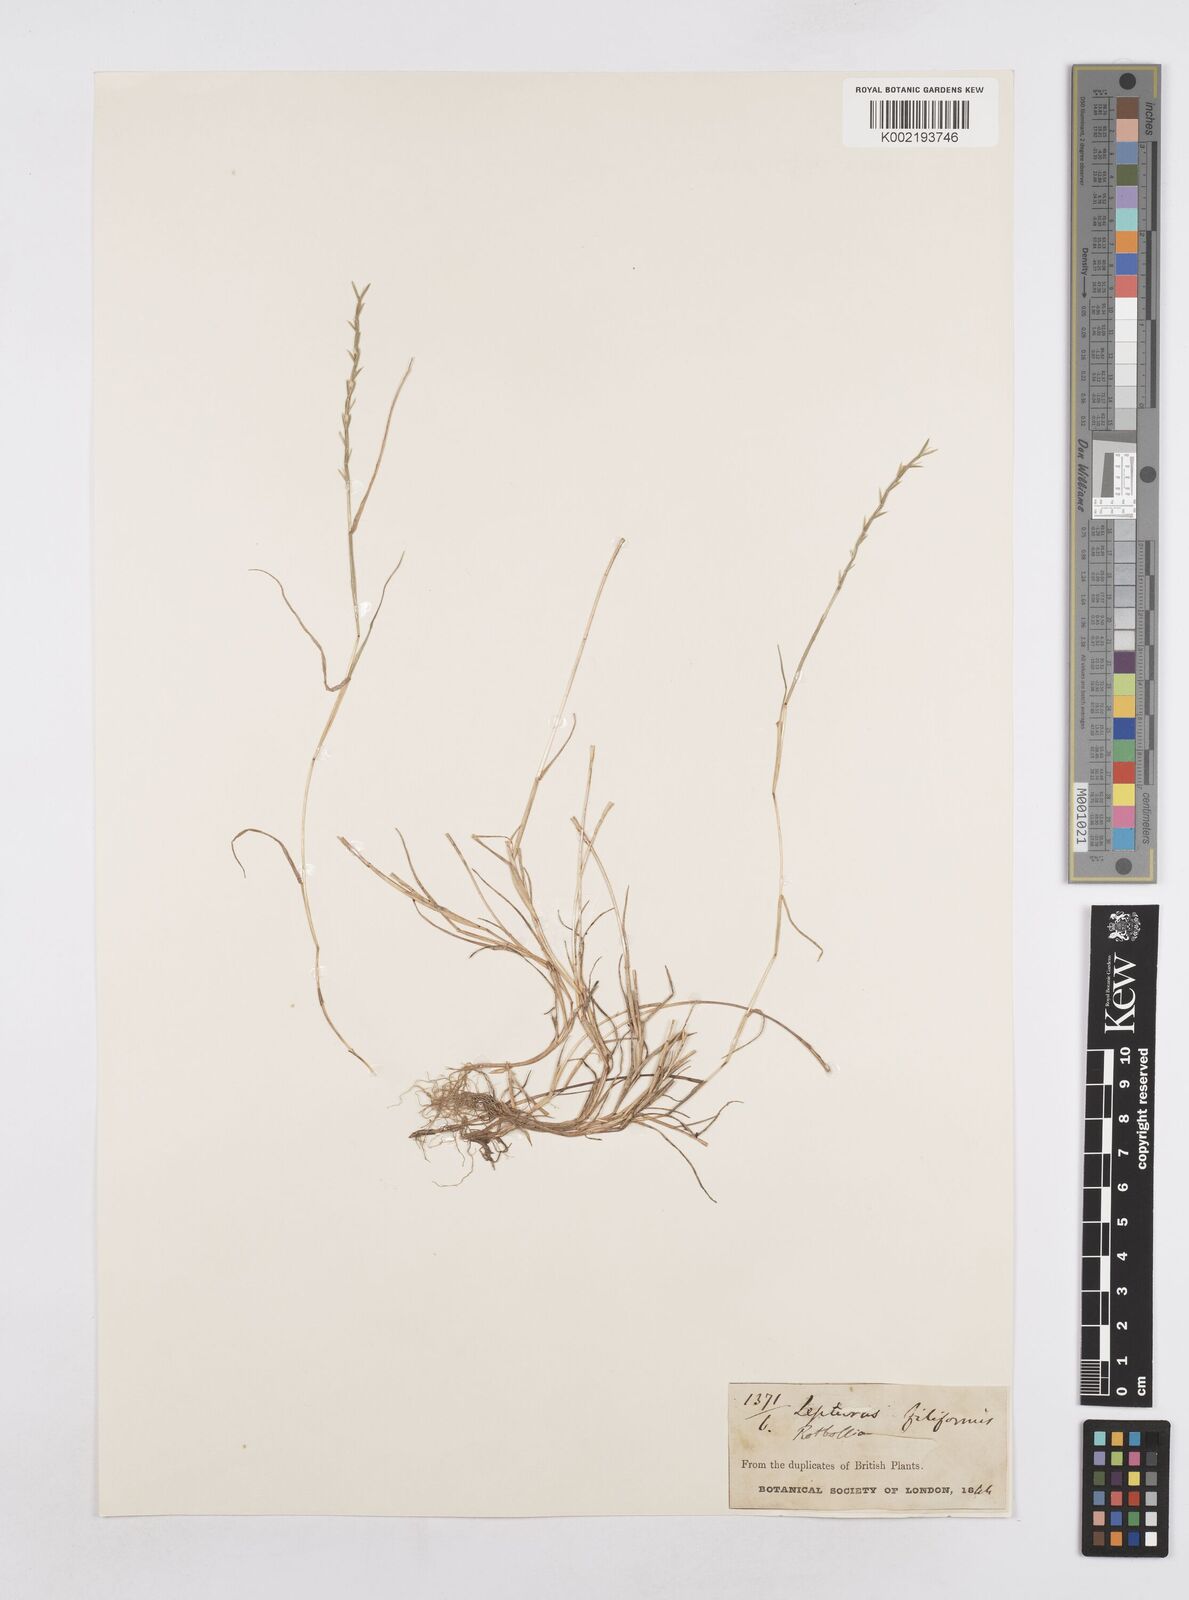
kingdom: Plantae
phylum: Tracheophyta
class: Liliopsida
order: Poales
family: Poaceae
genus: Parapholis
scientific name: Parapholis strigosa
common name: Hard-grass
